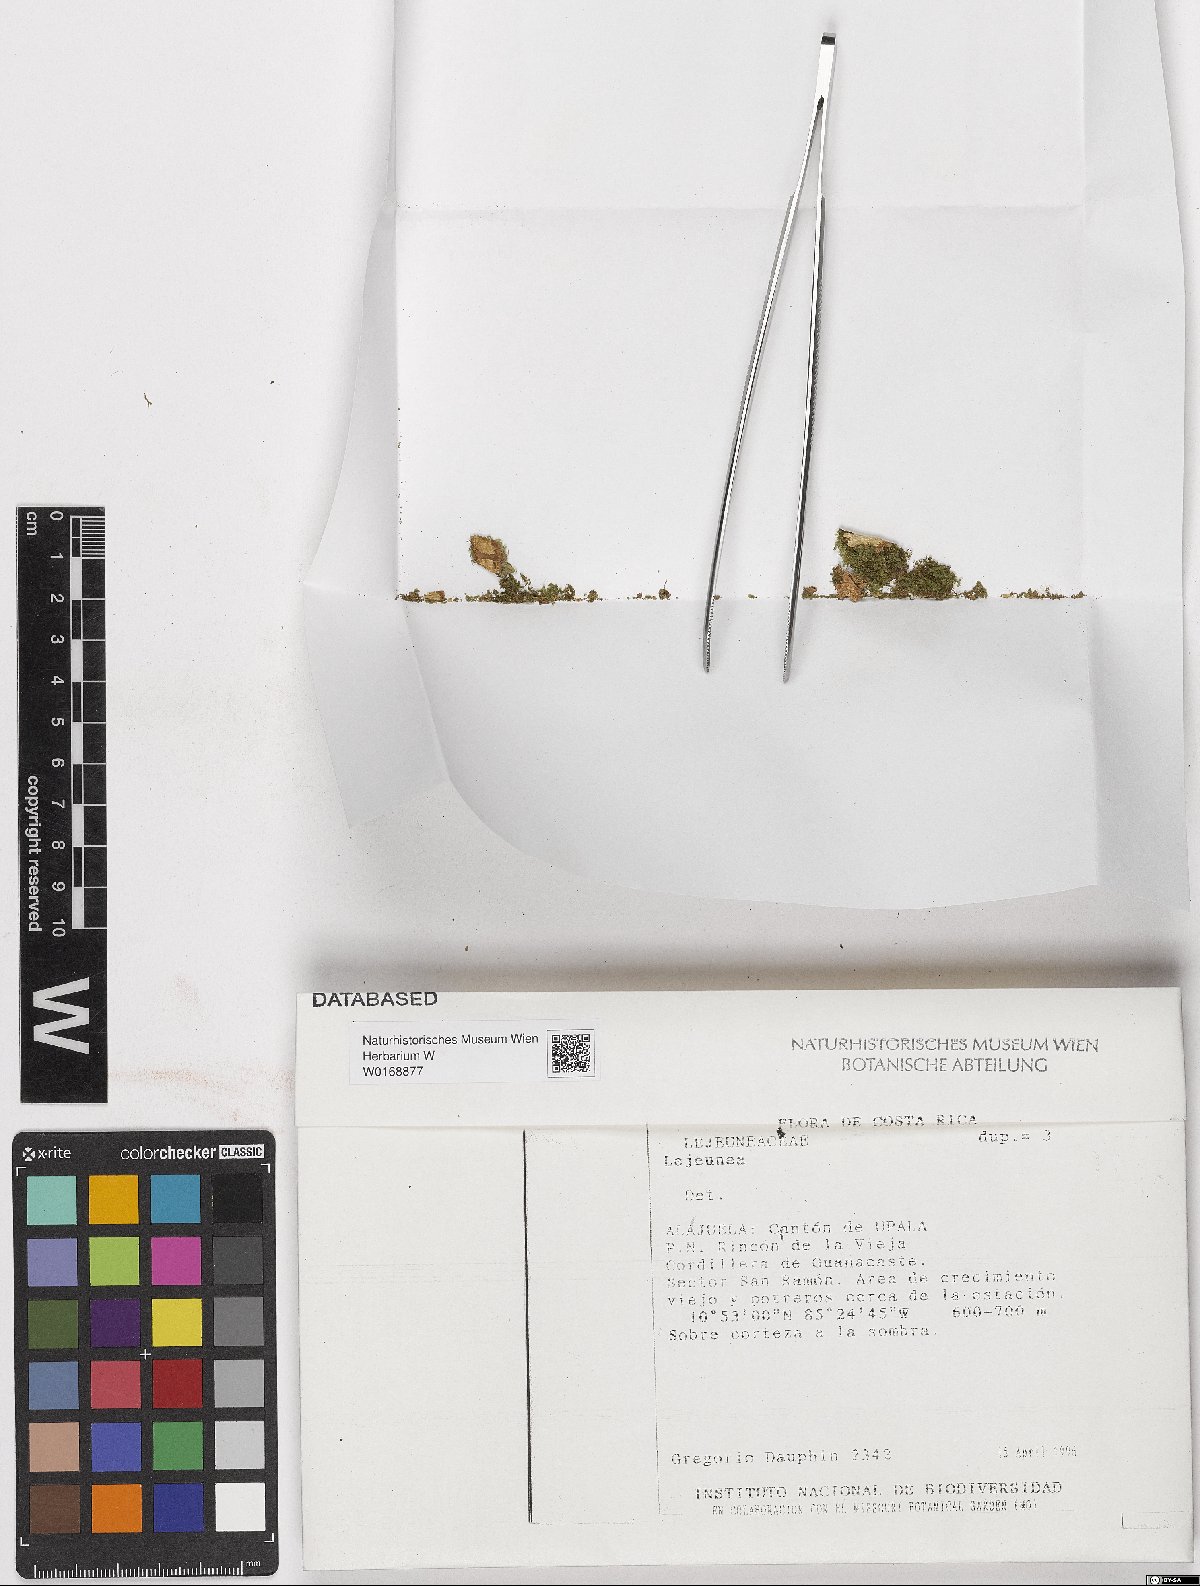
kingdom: Plantae
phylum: Marchantiophyta
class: Jungermanniopsida
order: Porellales
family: Lejeuneaceae
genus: Lejeunea
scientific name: Lejeunea
